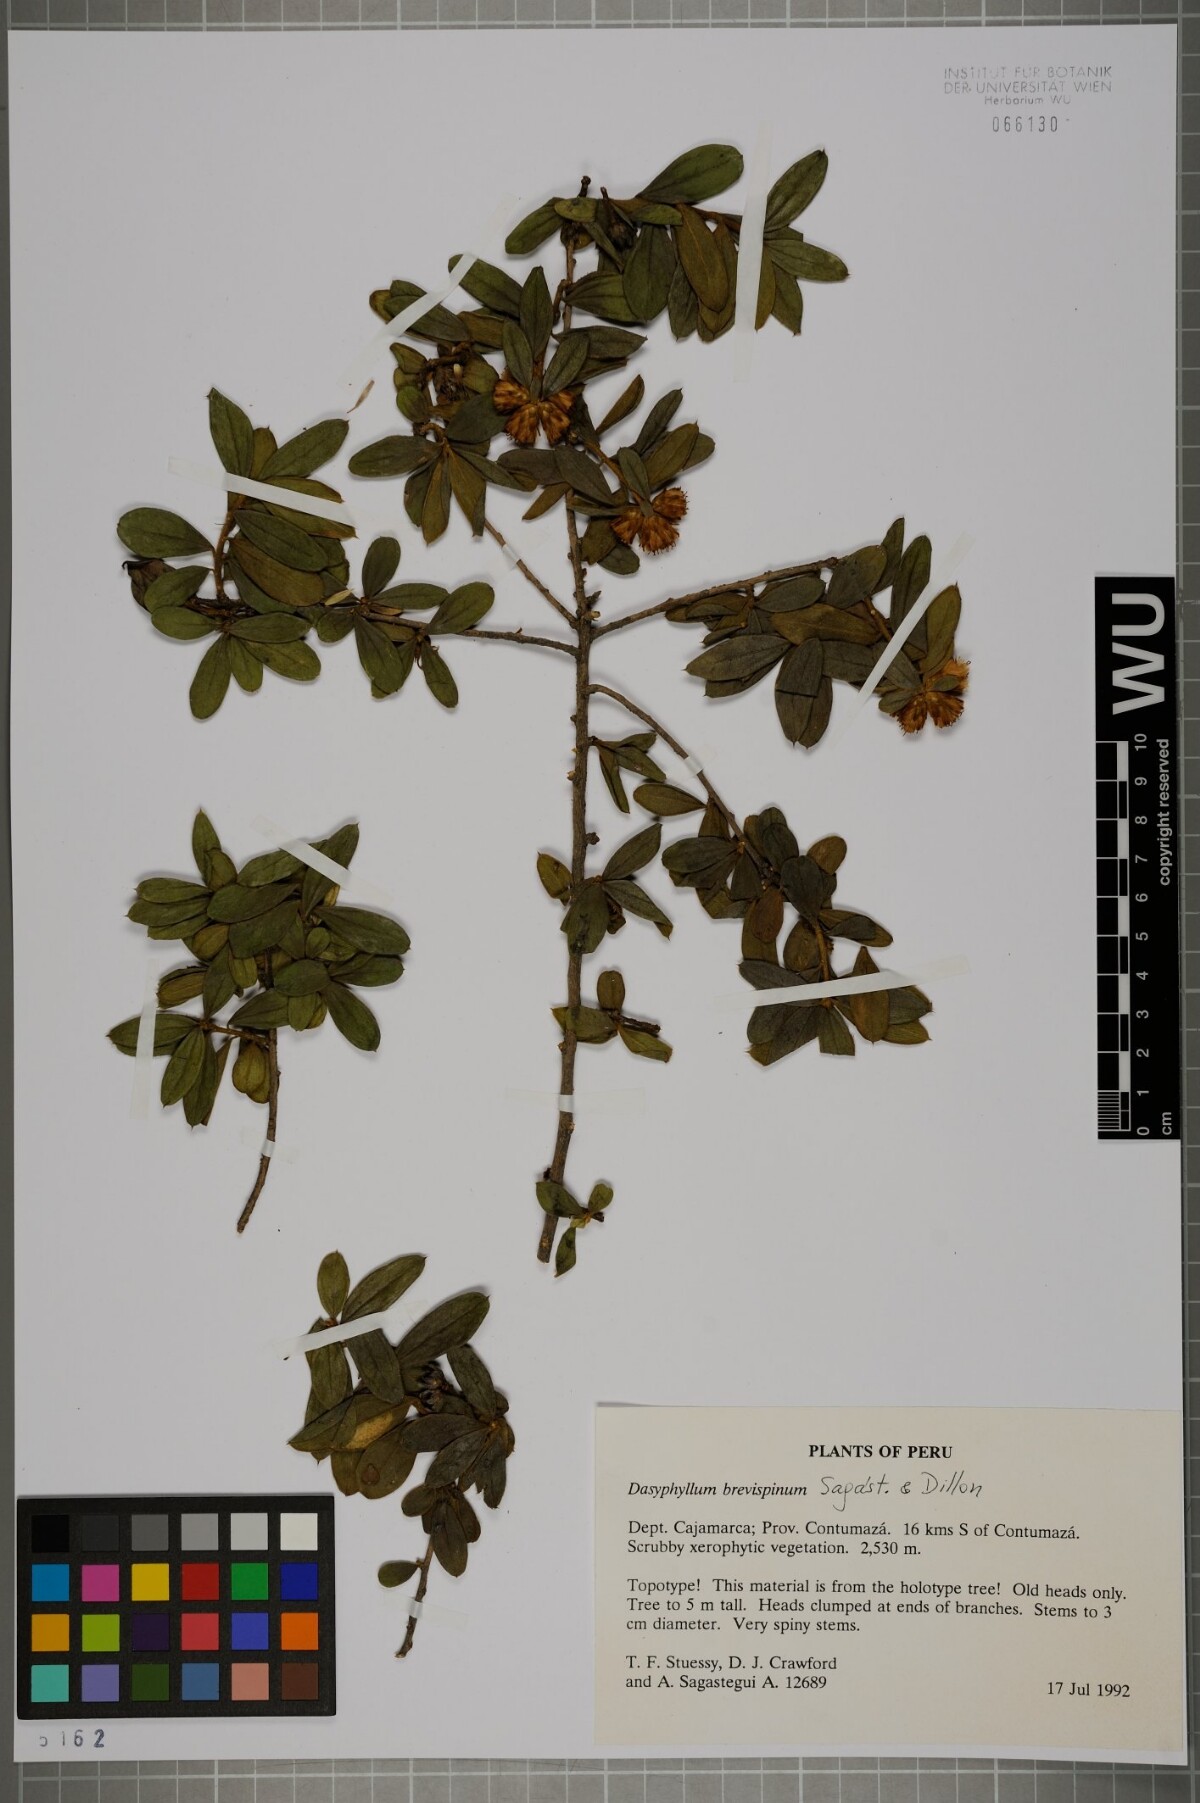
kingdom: Plantae
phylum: Tracheophyta
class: Magnoliopsida
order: Asterales
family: Asteraceae
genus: Dasyphyllum
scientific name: Dasyphyllum brevispinum
